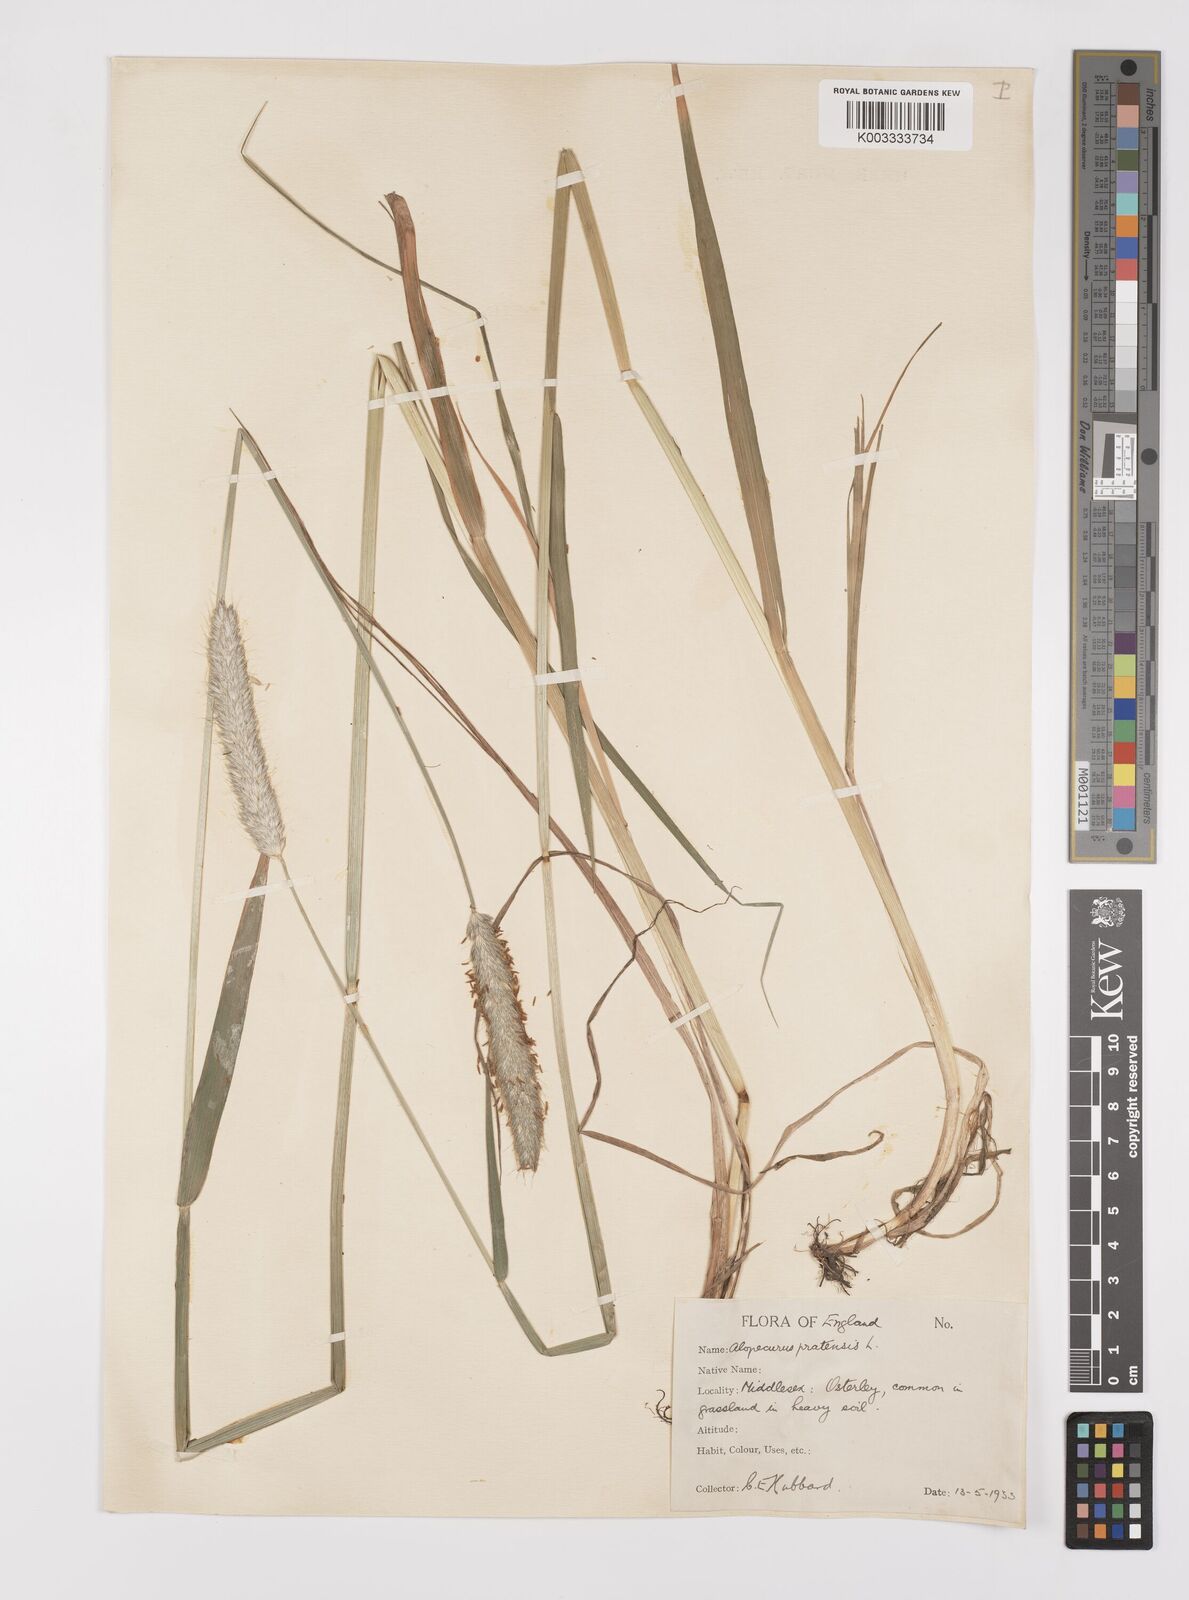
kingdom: Plantae
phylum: Tracheophyta
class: Liliopsida
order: Poales
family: Poaceae
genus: Alopecurus
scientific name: Alopecurus pratensis
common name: Meadow foxtail
